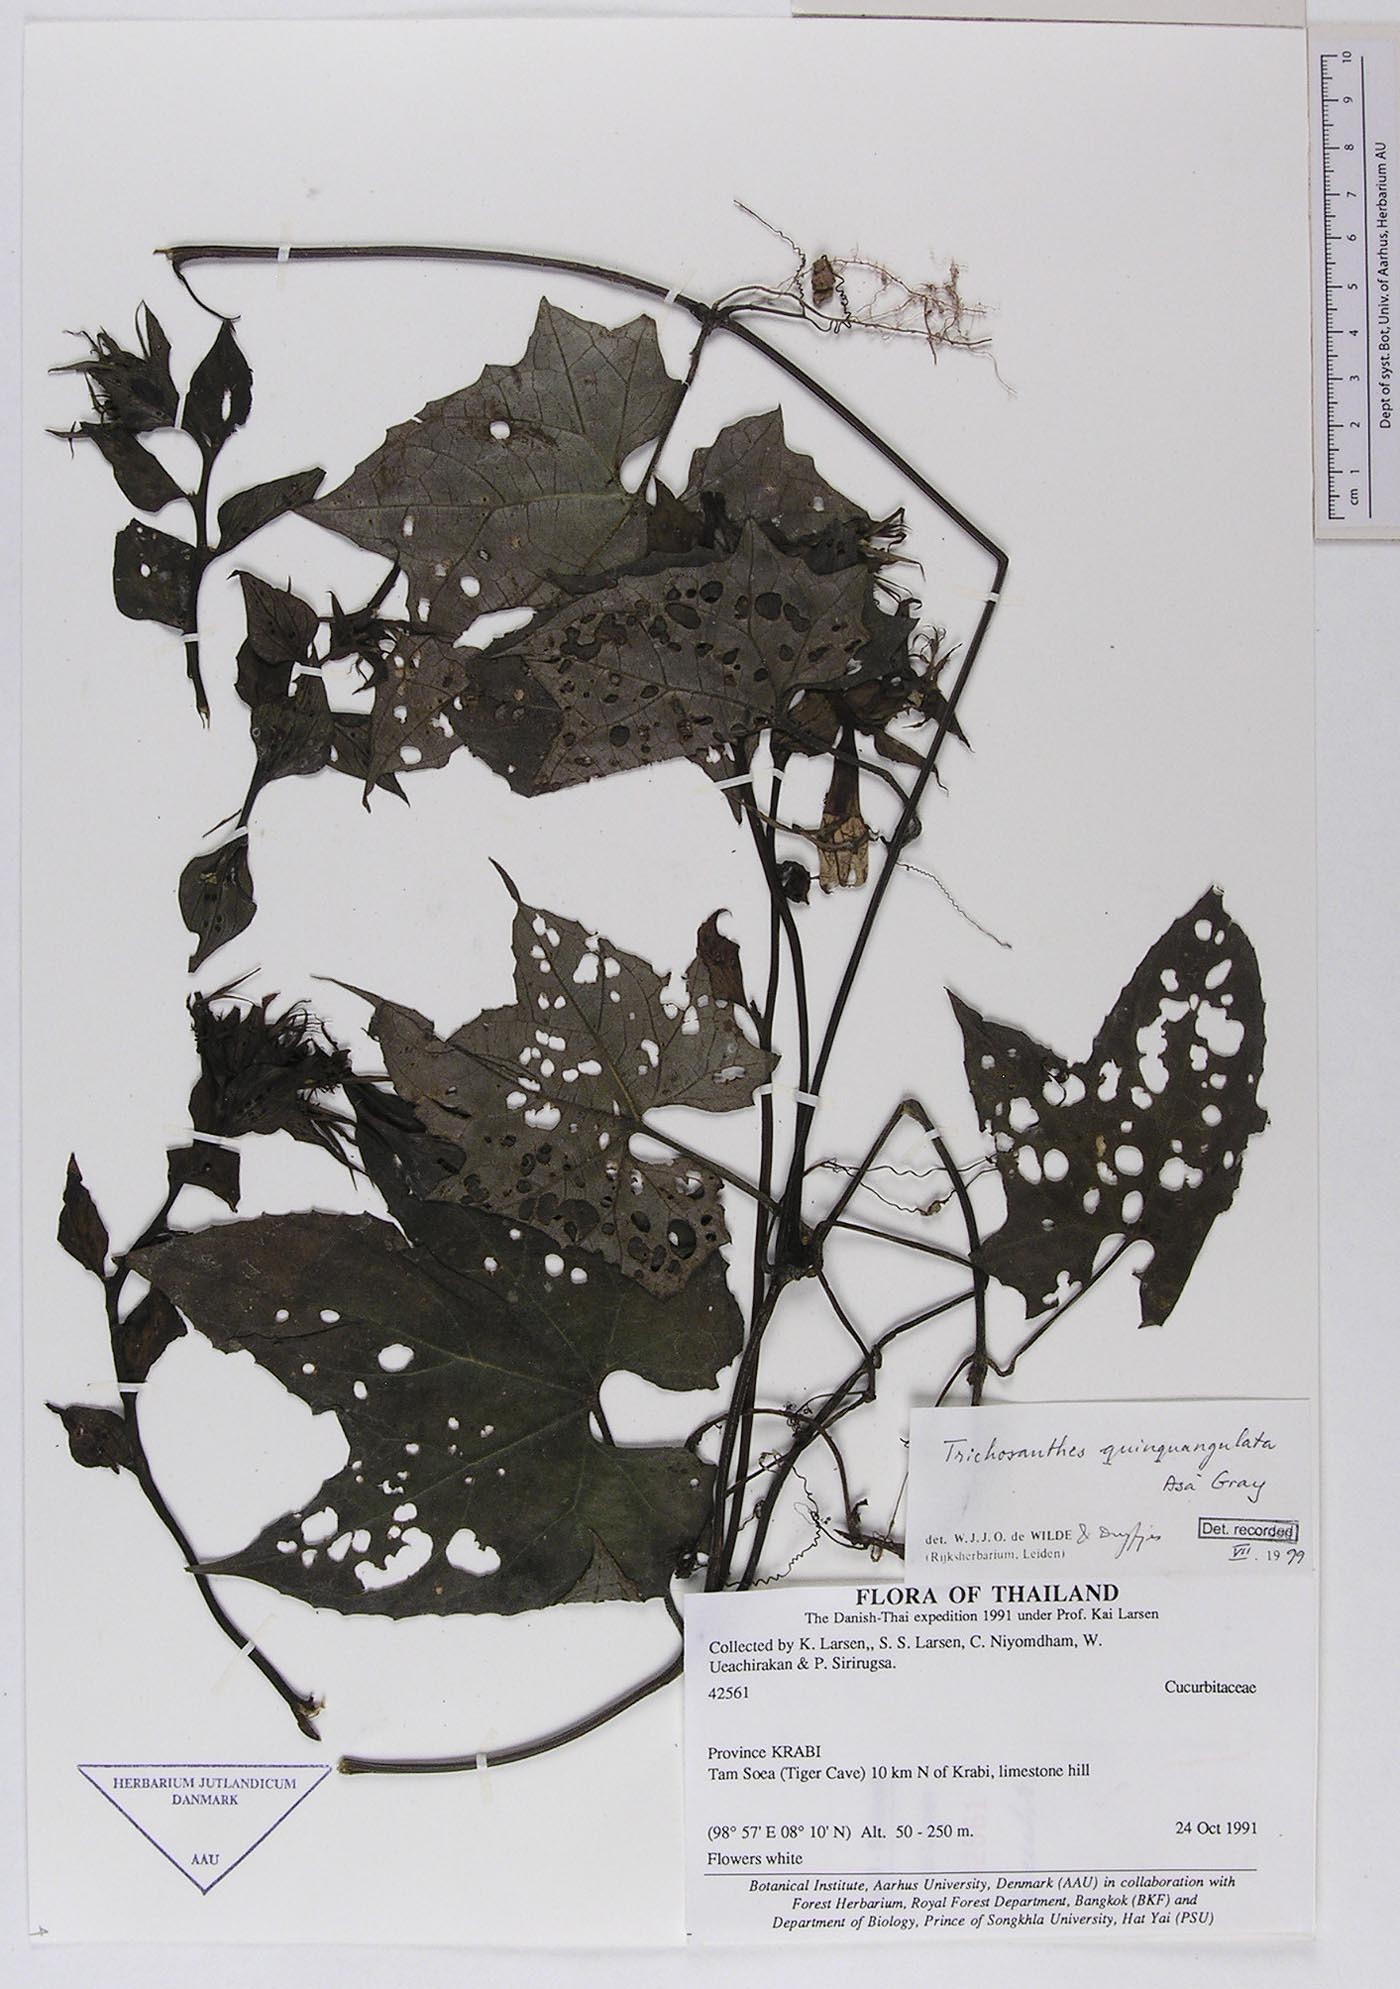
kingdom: Plantae
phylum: Tracheophyta
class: Magnoliopsida
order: Cucurbitales
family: Cucurbitaceae
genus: Trichosanthes
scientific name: Trichosanthes quinquangulata
